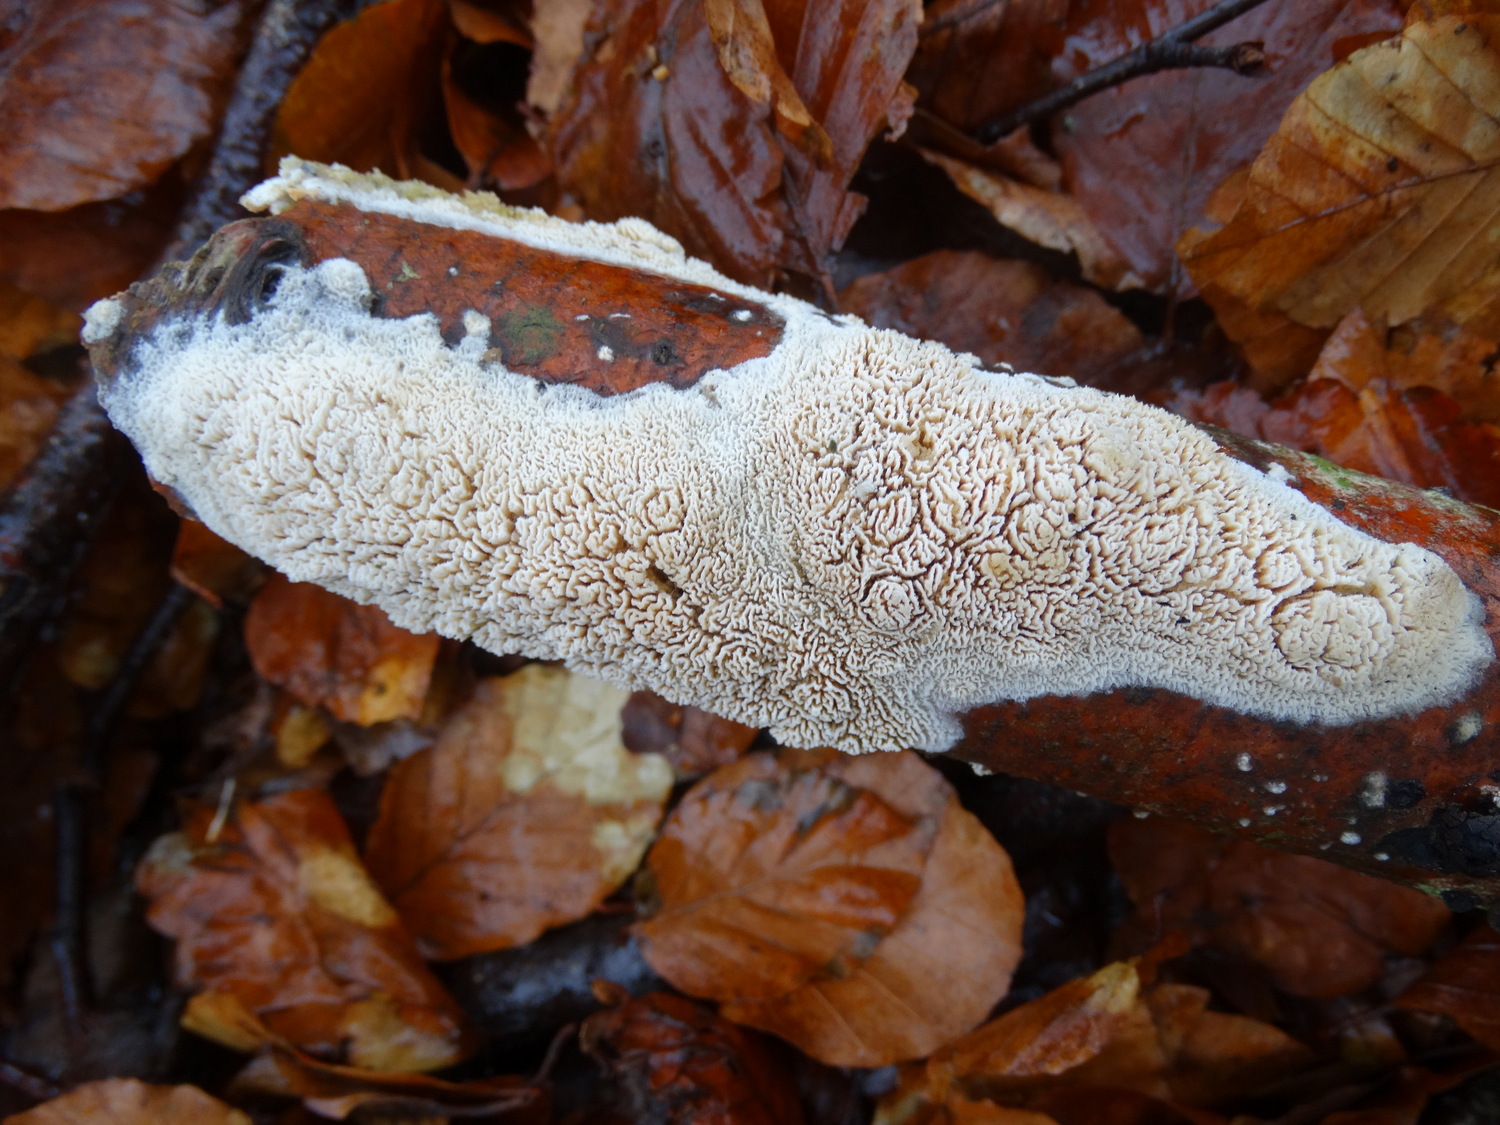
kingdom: Fungi
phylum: Basidiomycota
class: Agaricomycetes
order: Hymenochaetales
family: Schizoporaceae
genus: Xylodon
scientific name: Xylodon subtropicus
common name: labyrint-tandsvamp
